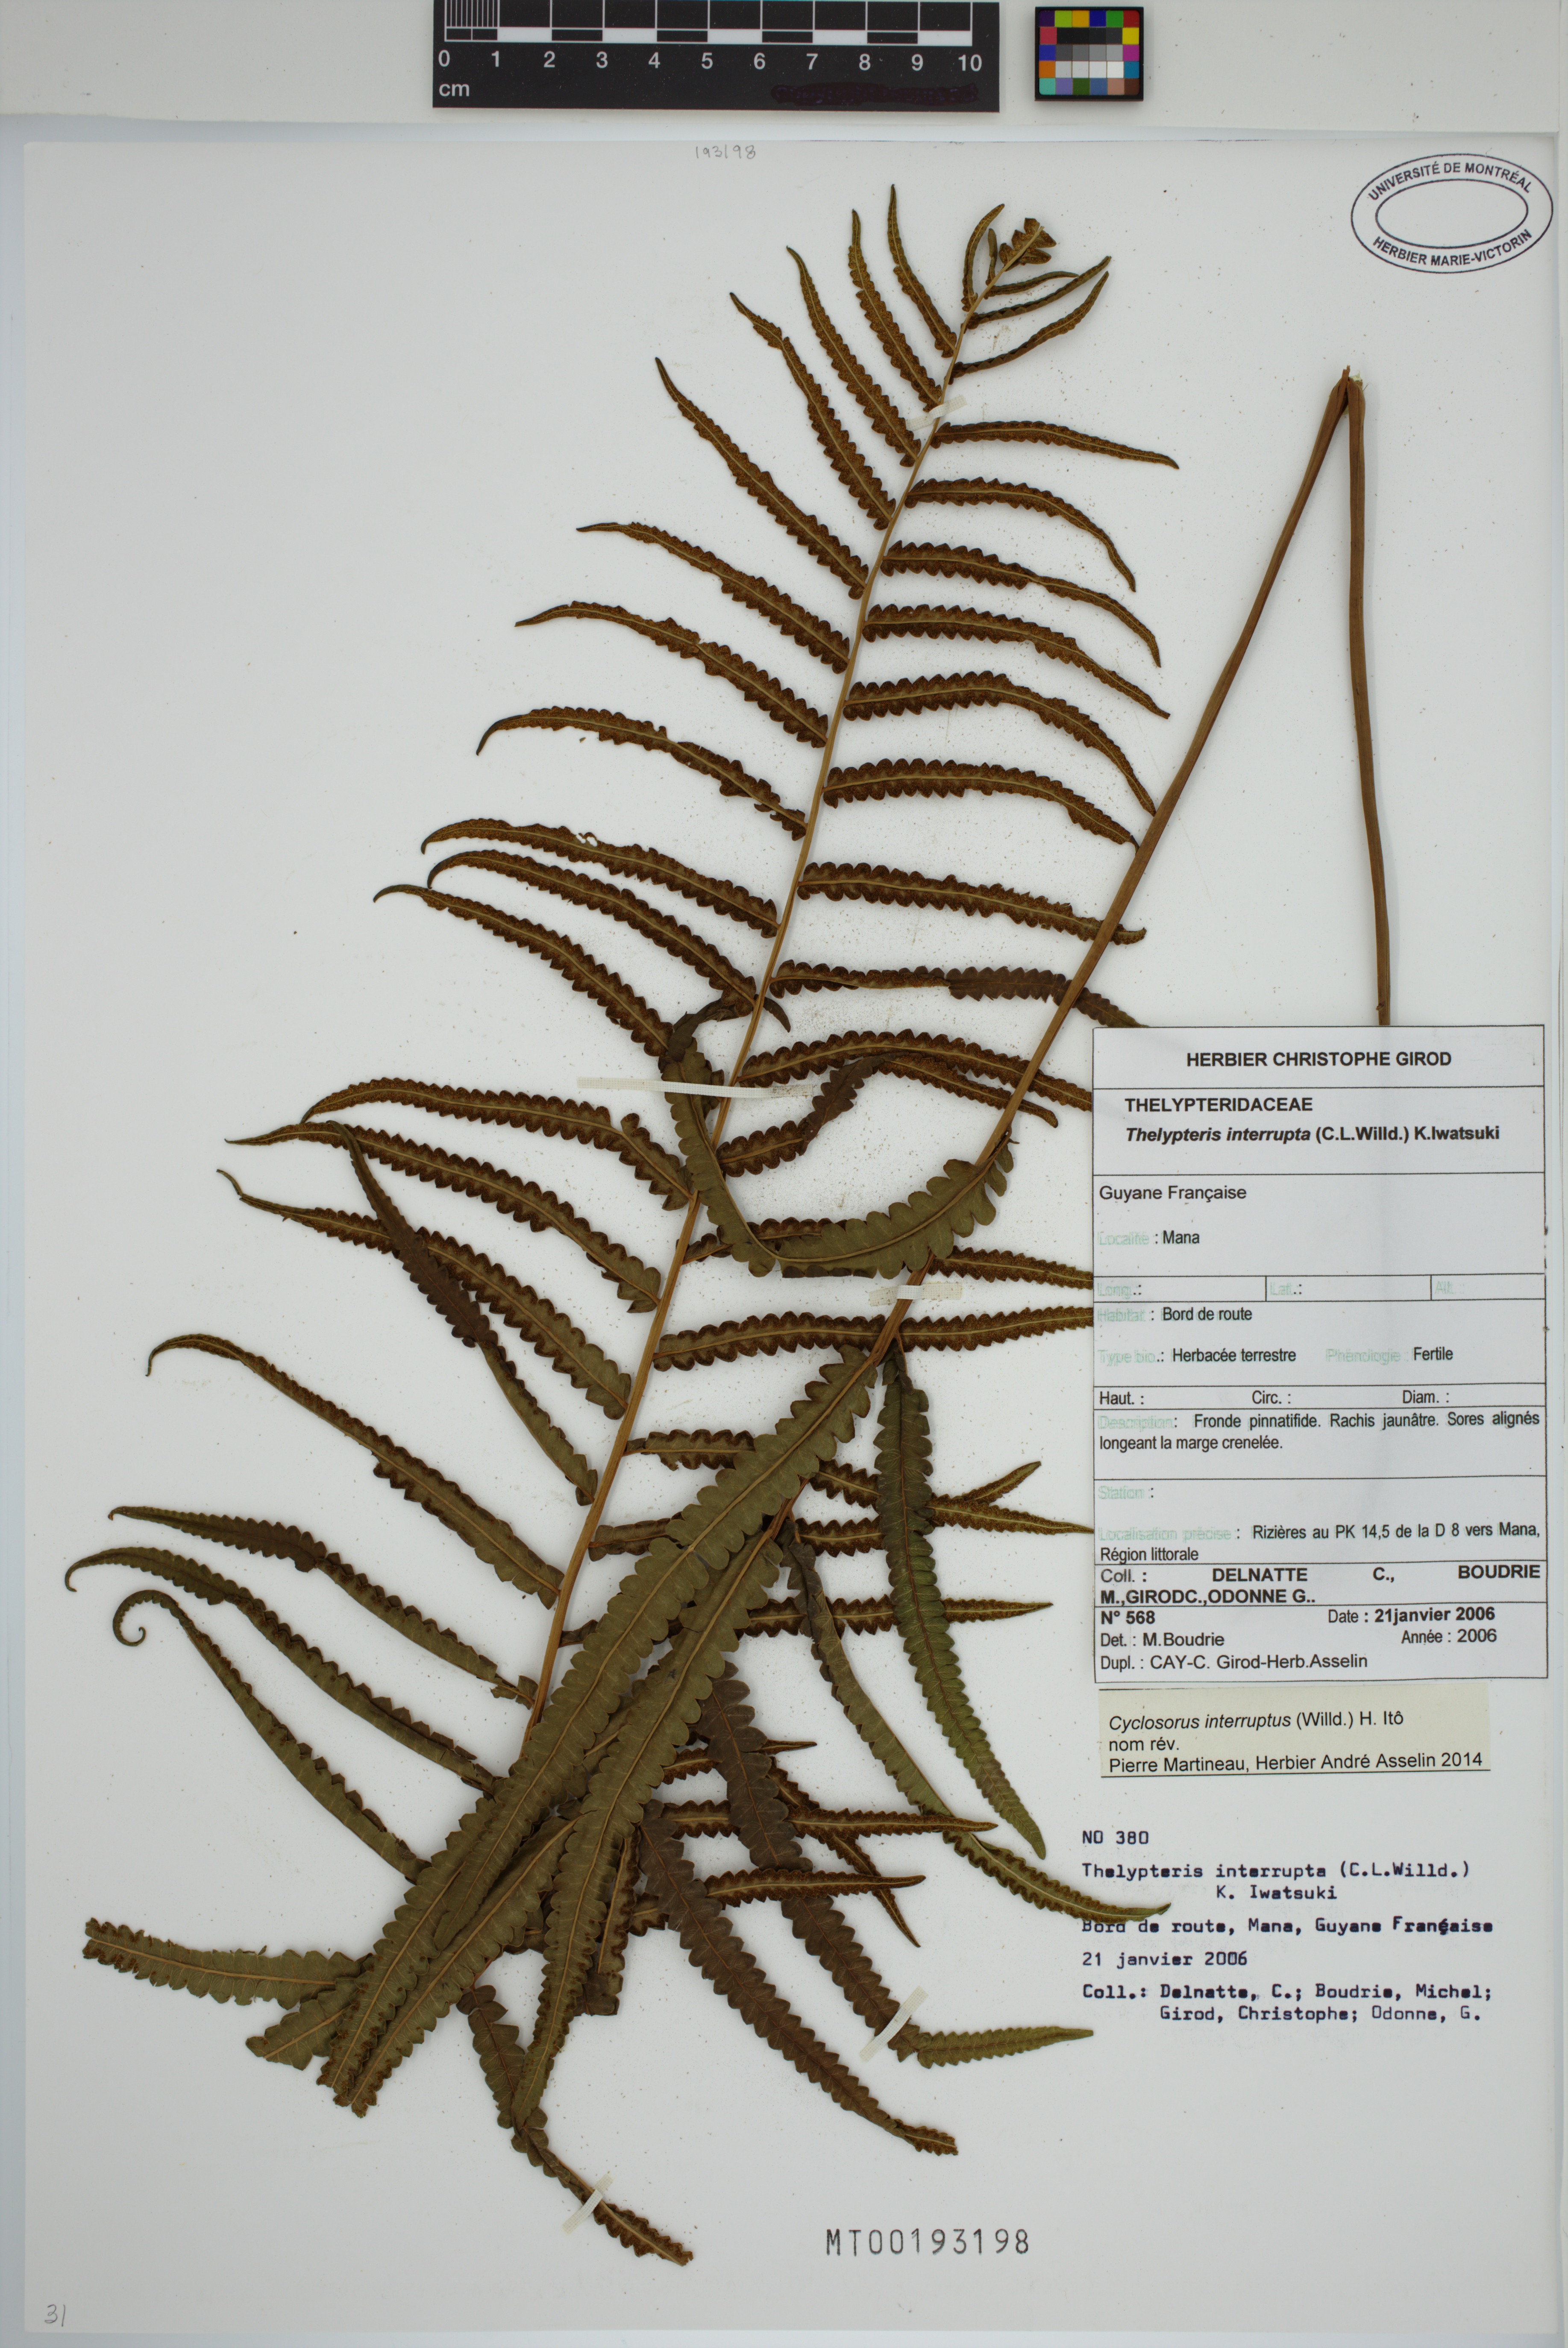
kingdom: Plantae
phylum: Tracheophyta
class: Polypodiopsida
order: Polypodiales
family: Thelypteridaceae
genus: Cyclosorus
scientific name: Cyclosorus interruptus
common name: Neke fern
